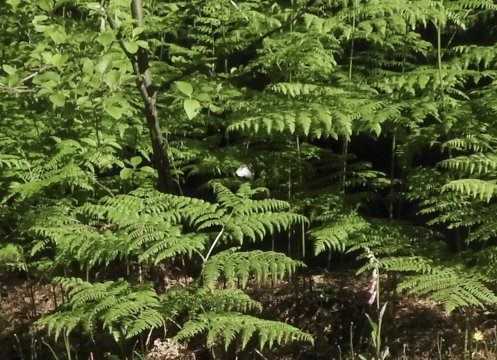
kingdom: Animalia
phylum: Arthropoda
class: Insecta
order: Lepidoptera
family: Papilionidae
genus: Parnassius
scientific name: Parnassius clodius
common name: Clodius Parnassian
